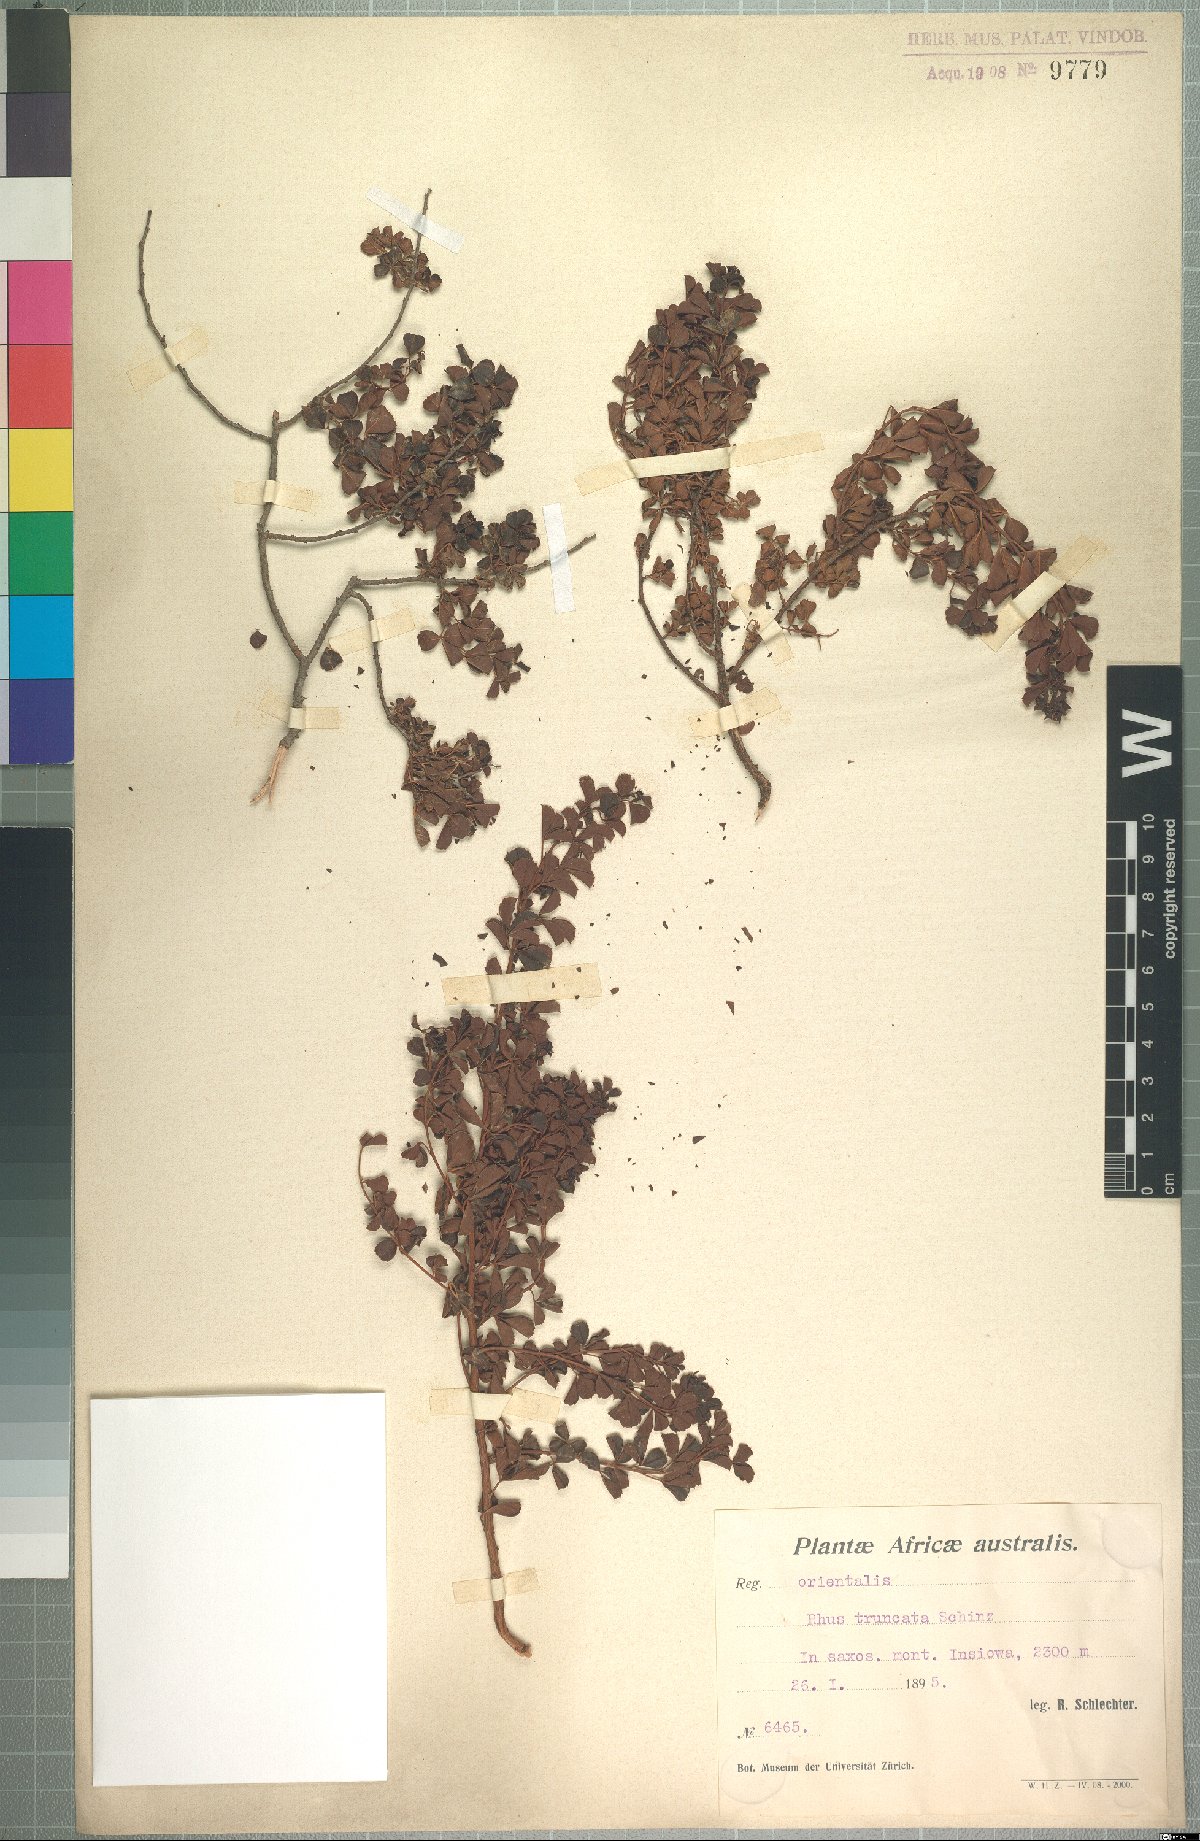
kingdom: Plantae
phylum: Tracheophyta
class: Magnoliopsida
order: Sapindales
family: Anacardiaceae
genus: Searsia
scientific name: Searsia rigida
